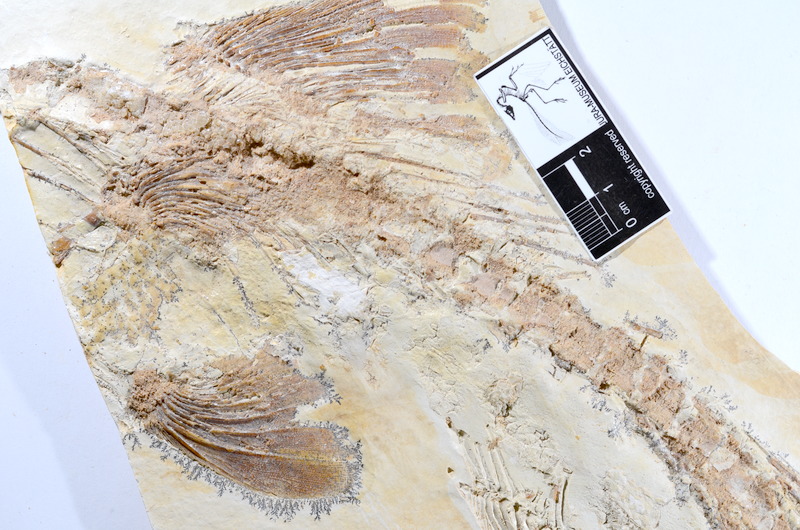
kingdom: Animalia
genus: Halecomorphi
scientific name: Halecomorphi
